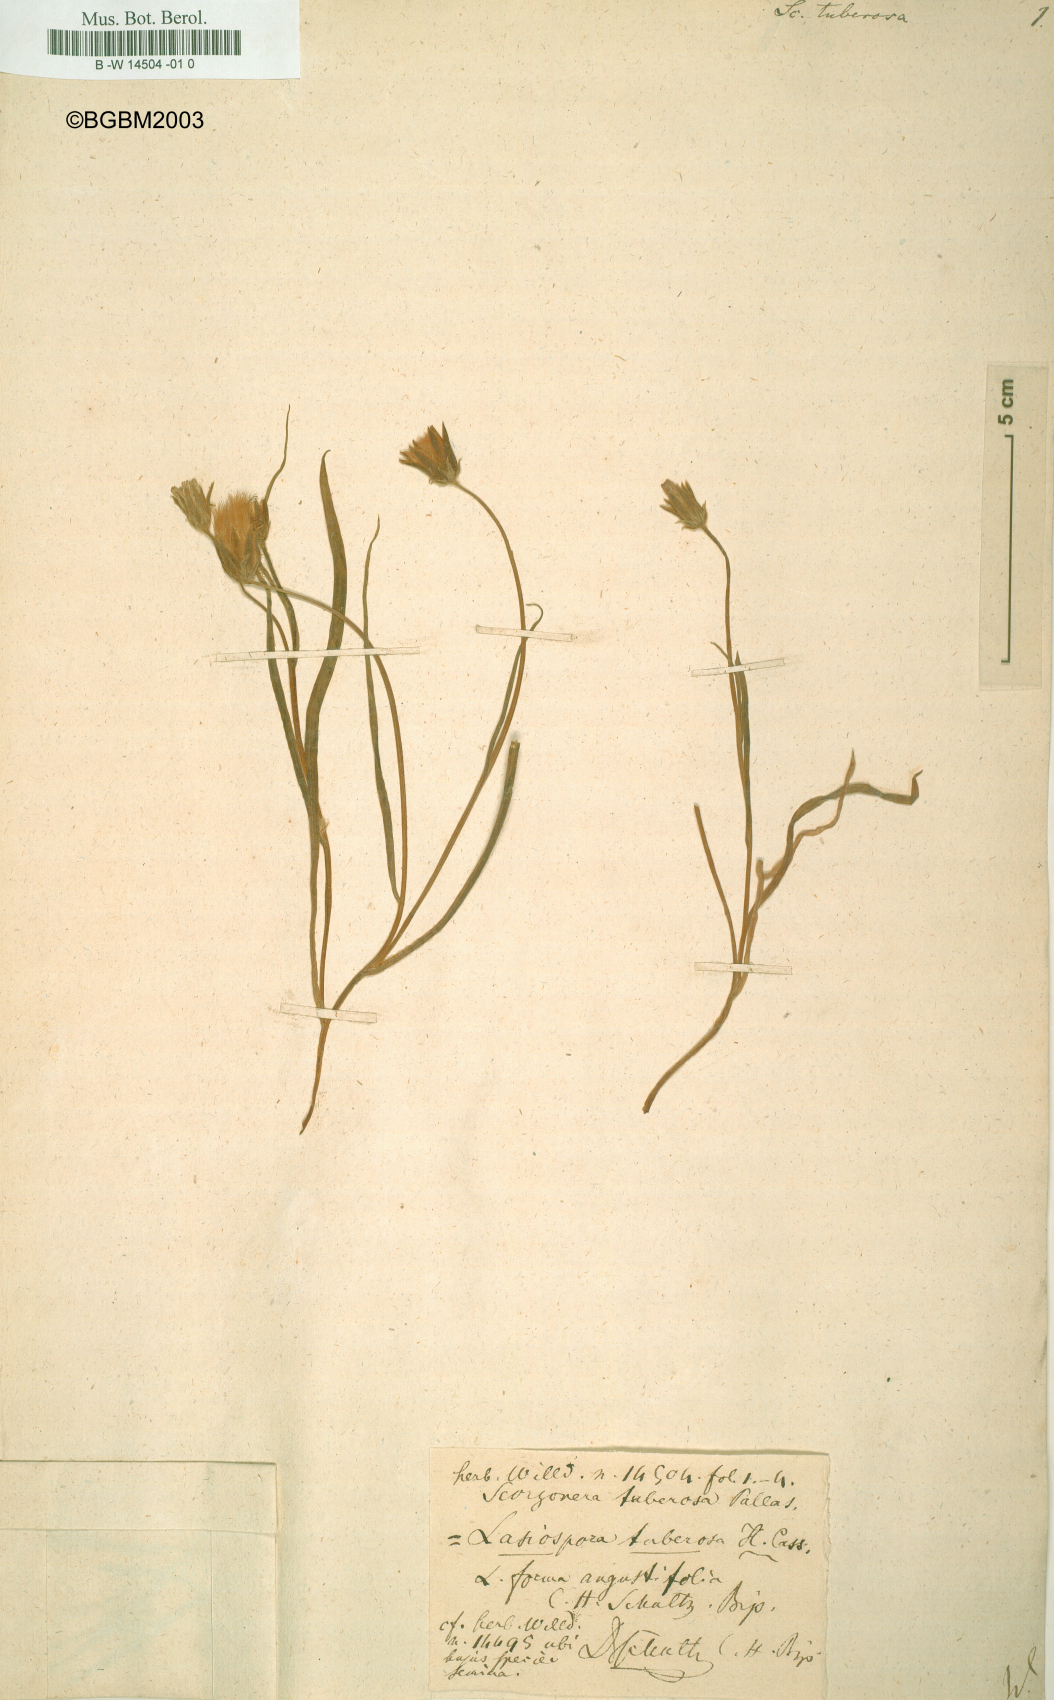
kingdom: Plantae
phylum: Tracheophyta
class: Magnoliopsida
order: Asterales
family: Asteraceae
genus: Scorzonera
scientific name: Scorzonera tuberosa
